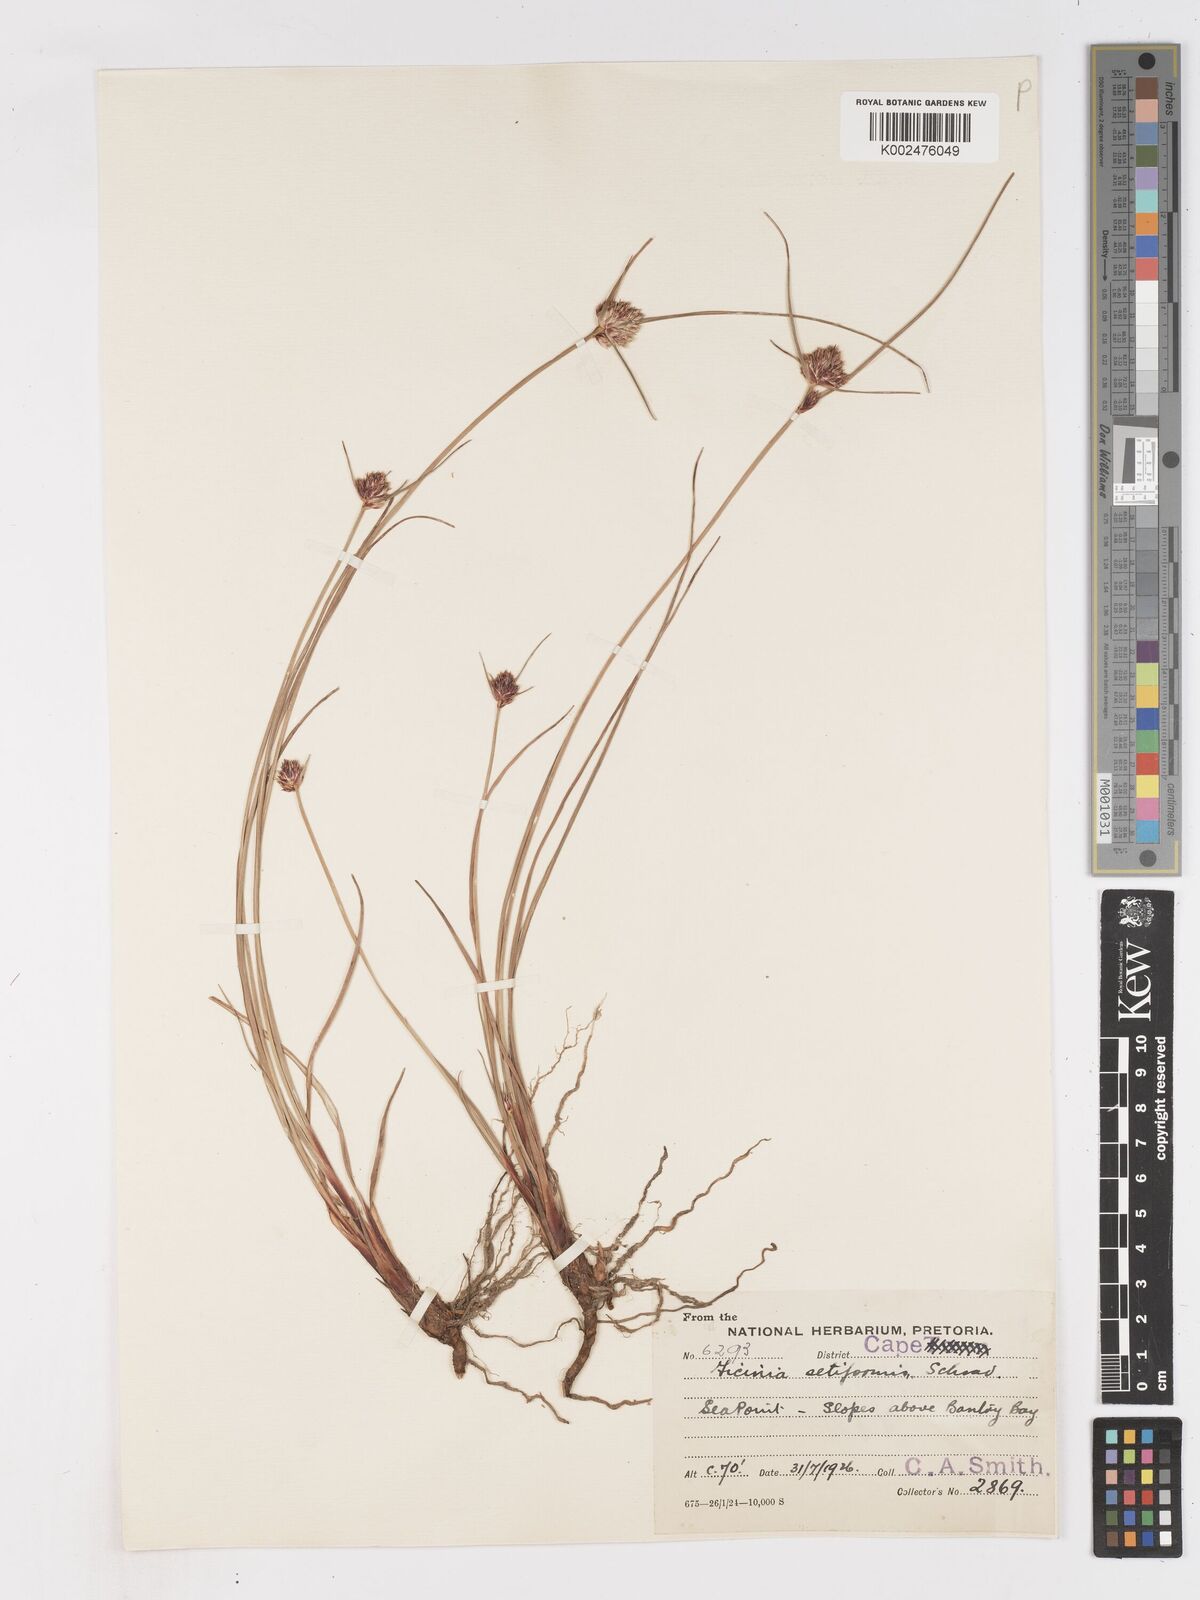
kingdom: Plantae
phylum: Tracheophyta
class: Liliopsida
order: Poales
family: Cyperaceae
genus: Ficinia
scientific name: Ficinia indica
